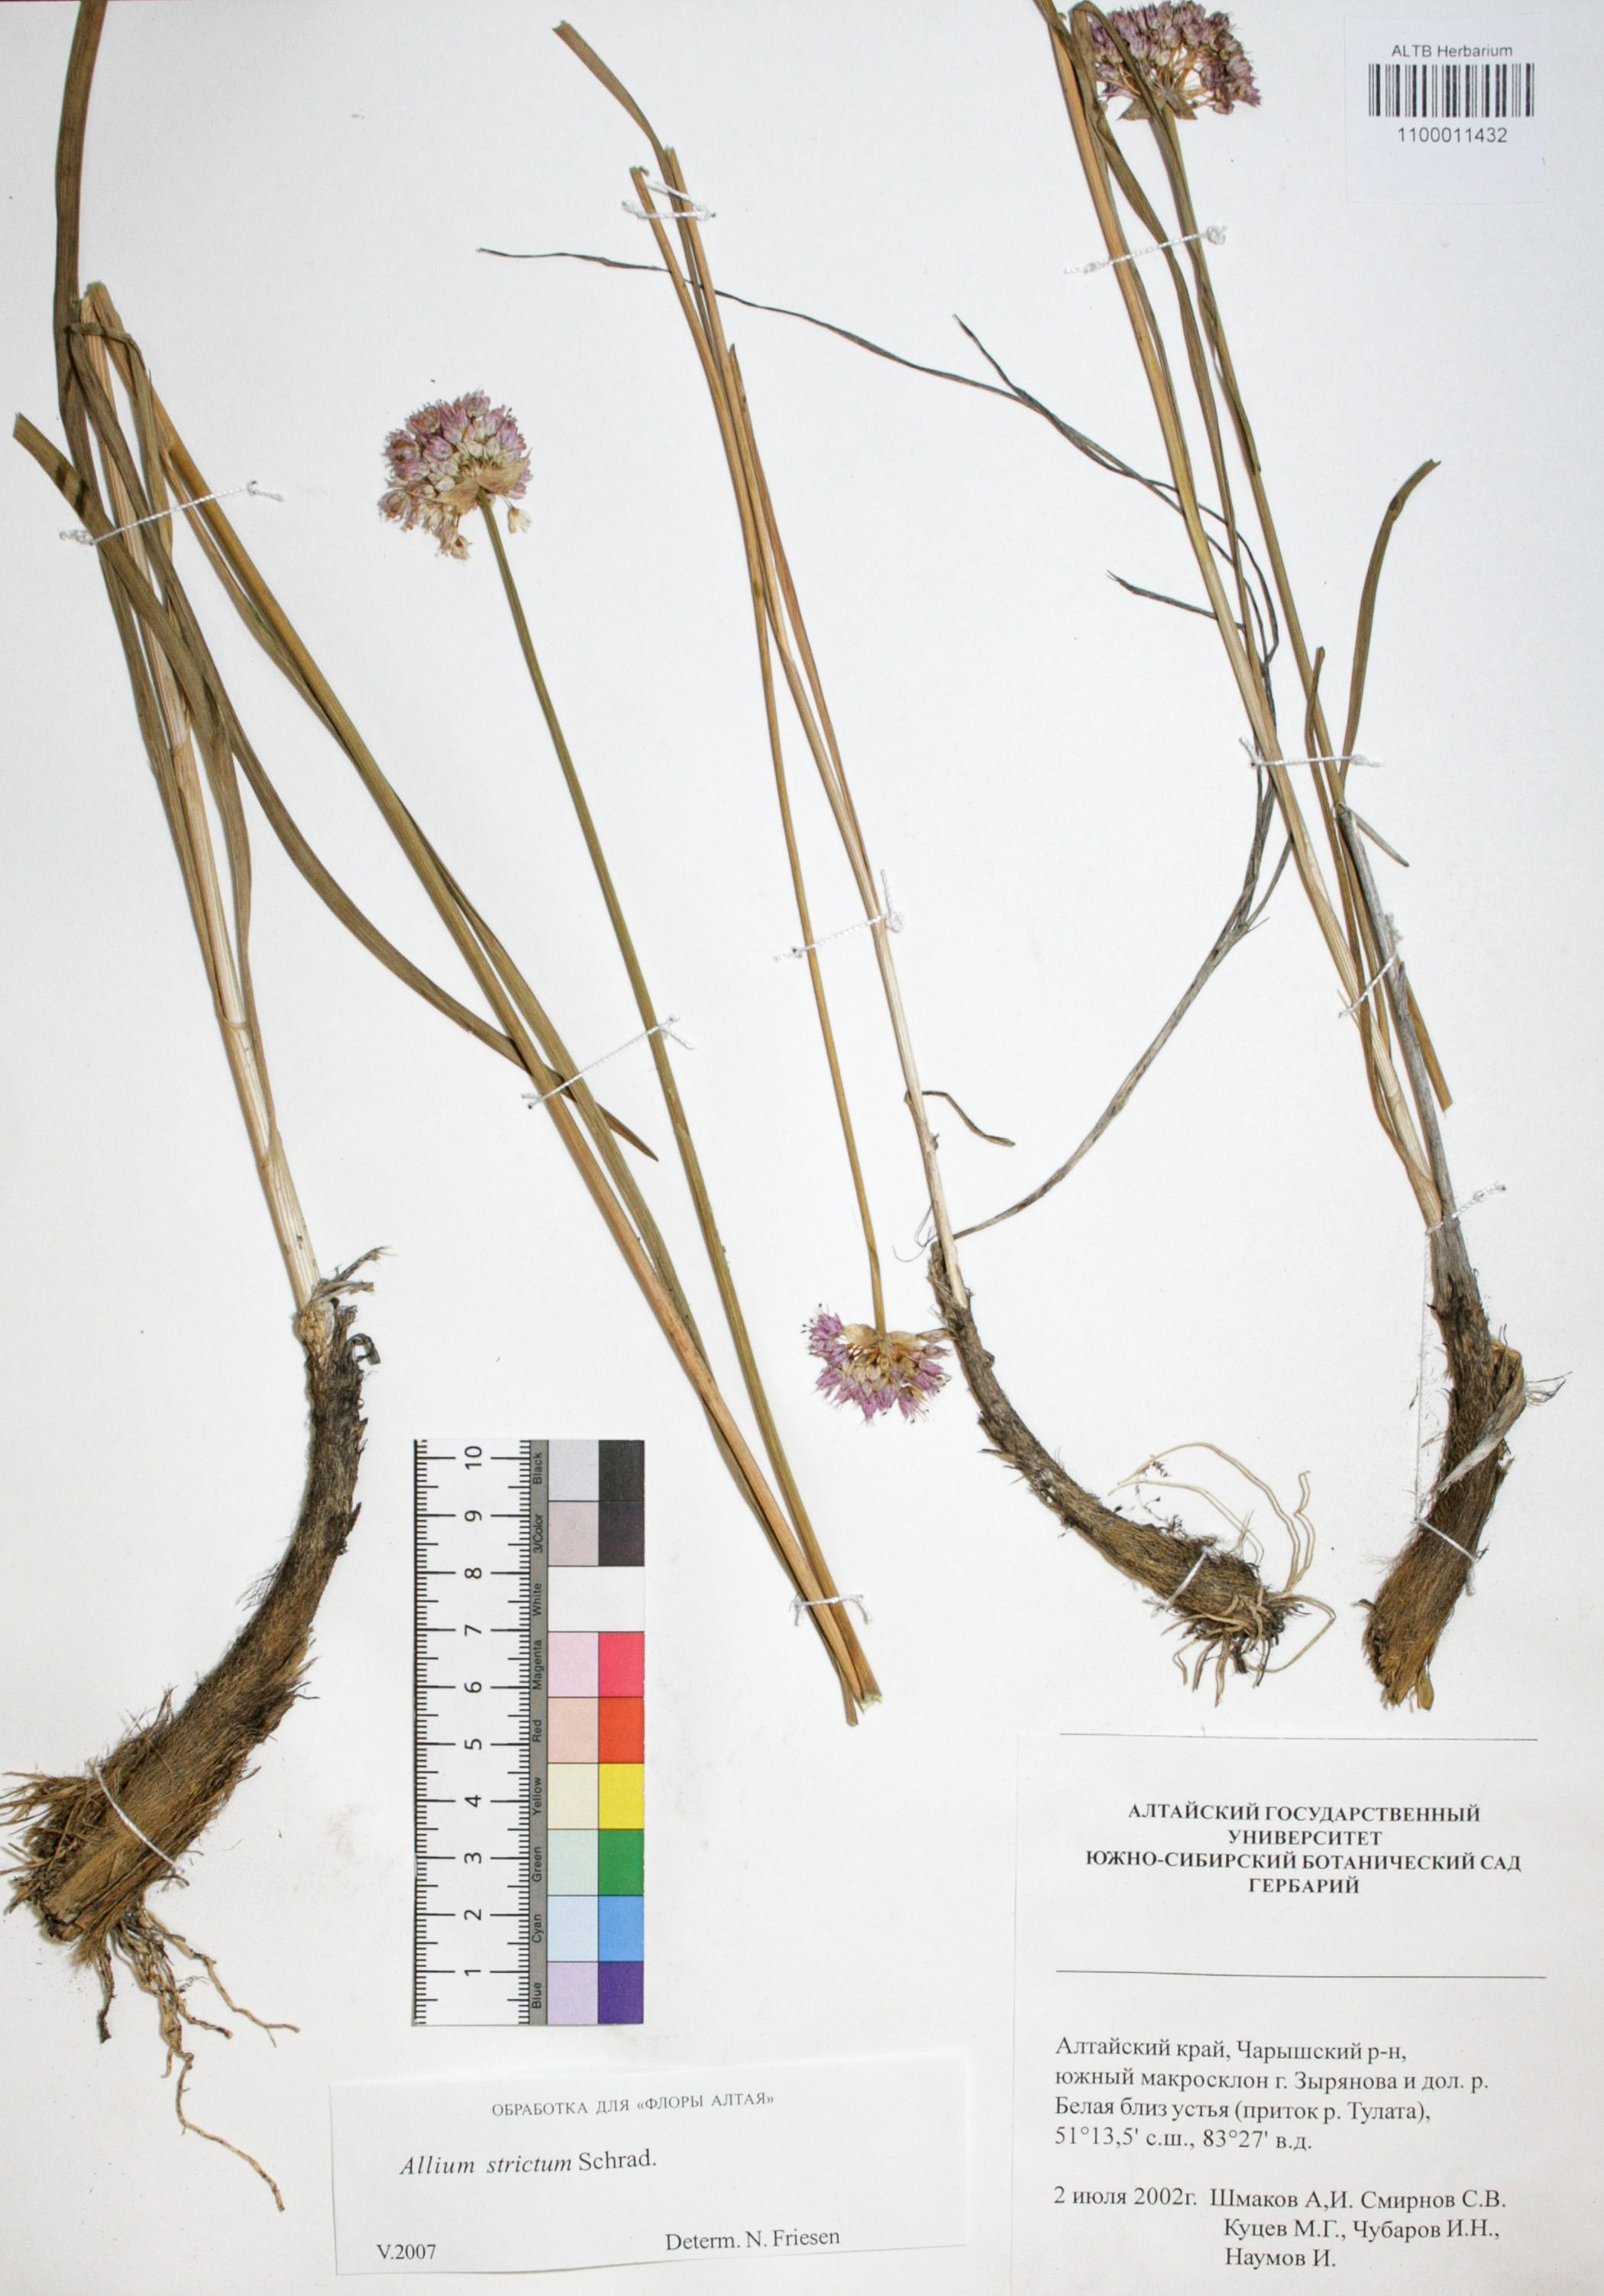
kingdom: Plantae
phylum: Tracheophyta
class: Liliopsida
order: Asparagales
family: Amaryllidaceae
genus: Allium
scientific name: Allium strictum
